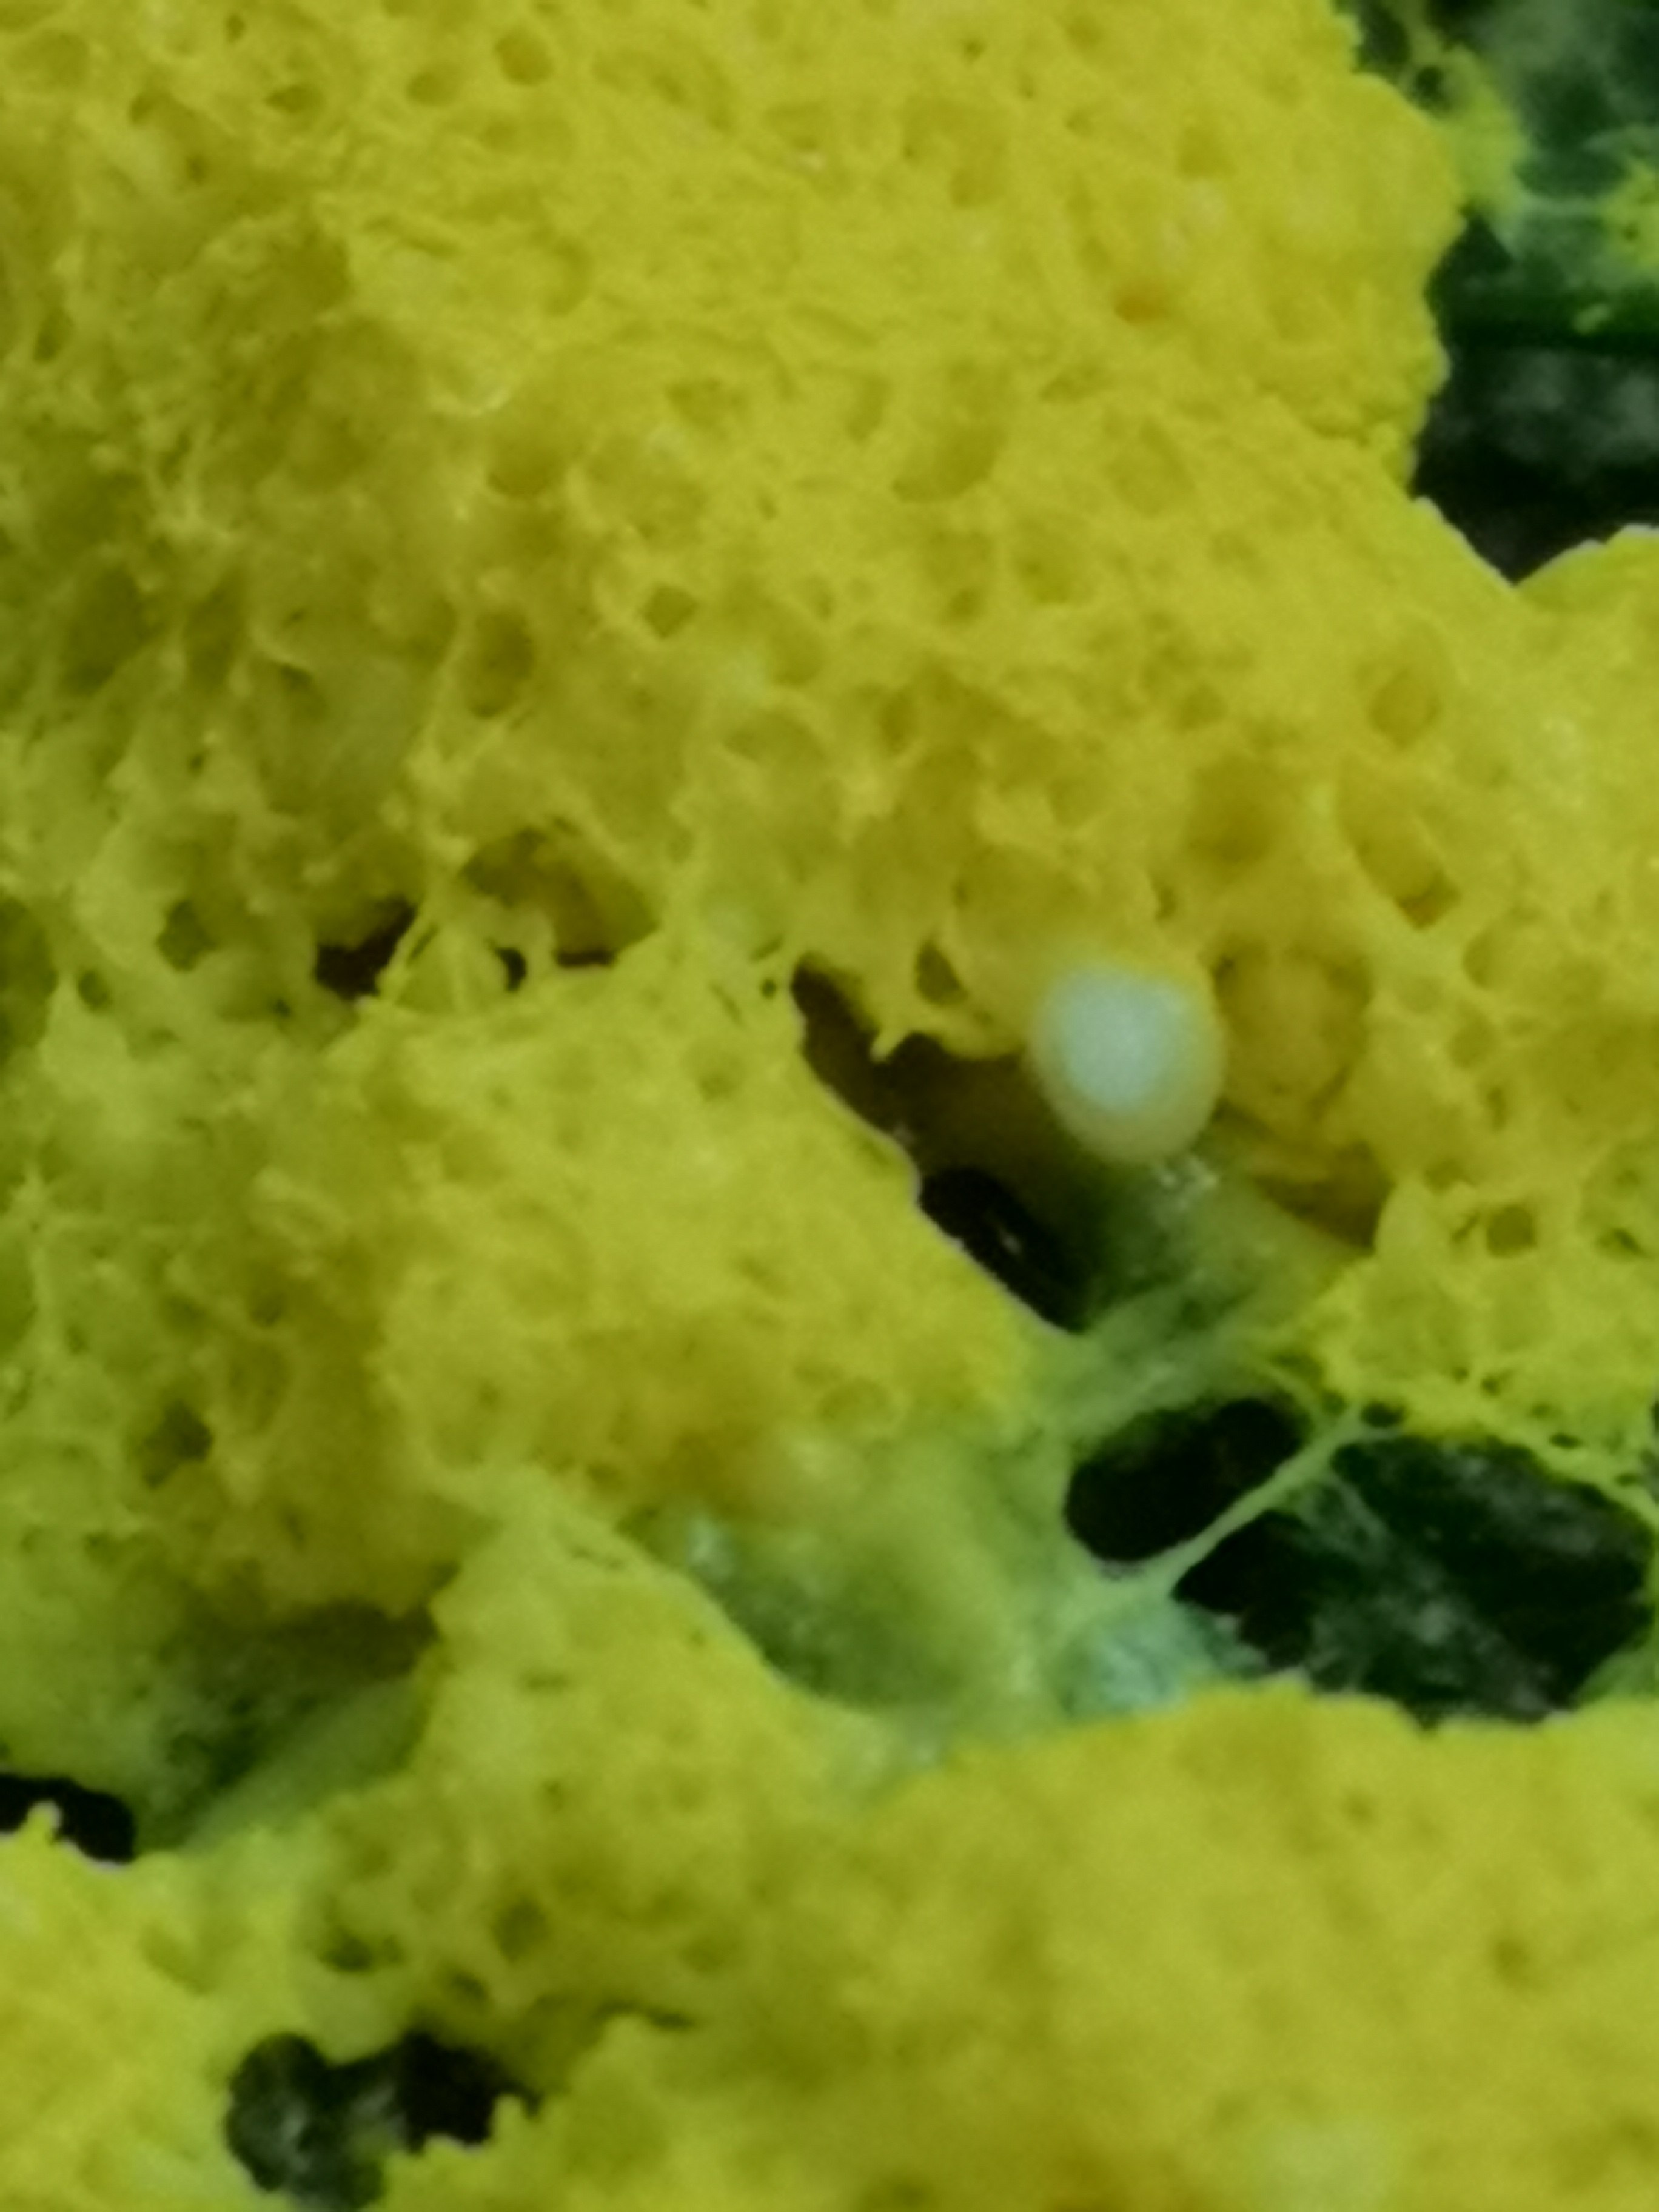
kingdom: Protozoa
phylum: Mycetozoa
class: Myxomycetes
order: Physarales
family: Physaraceae
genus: Fuligo
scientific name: Fuligo septica
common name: gul troldsmør
